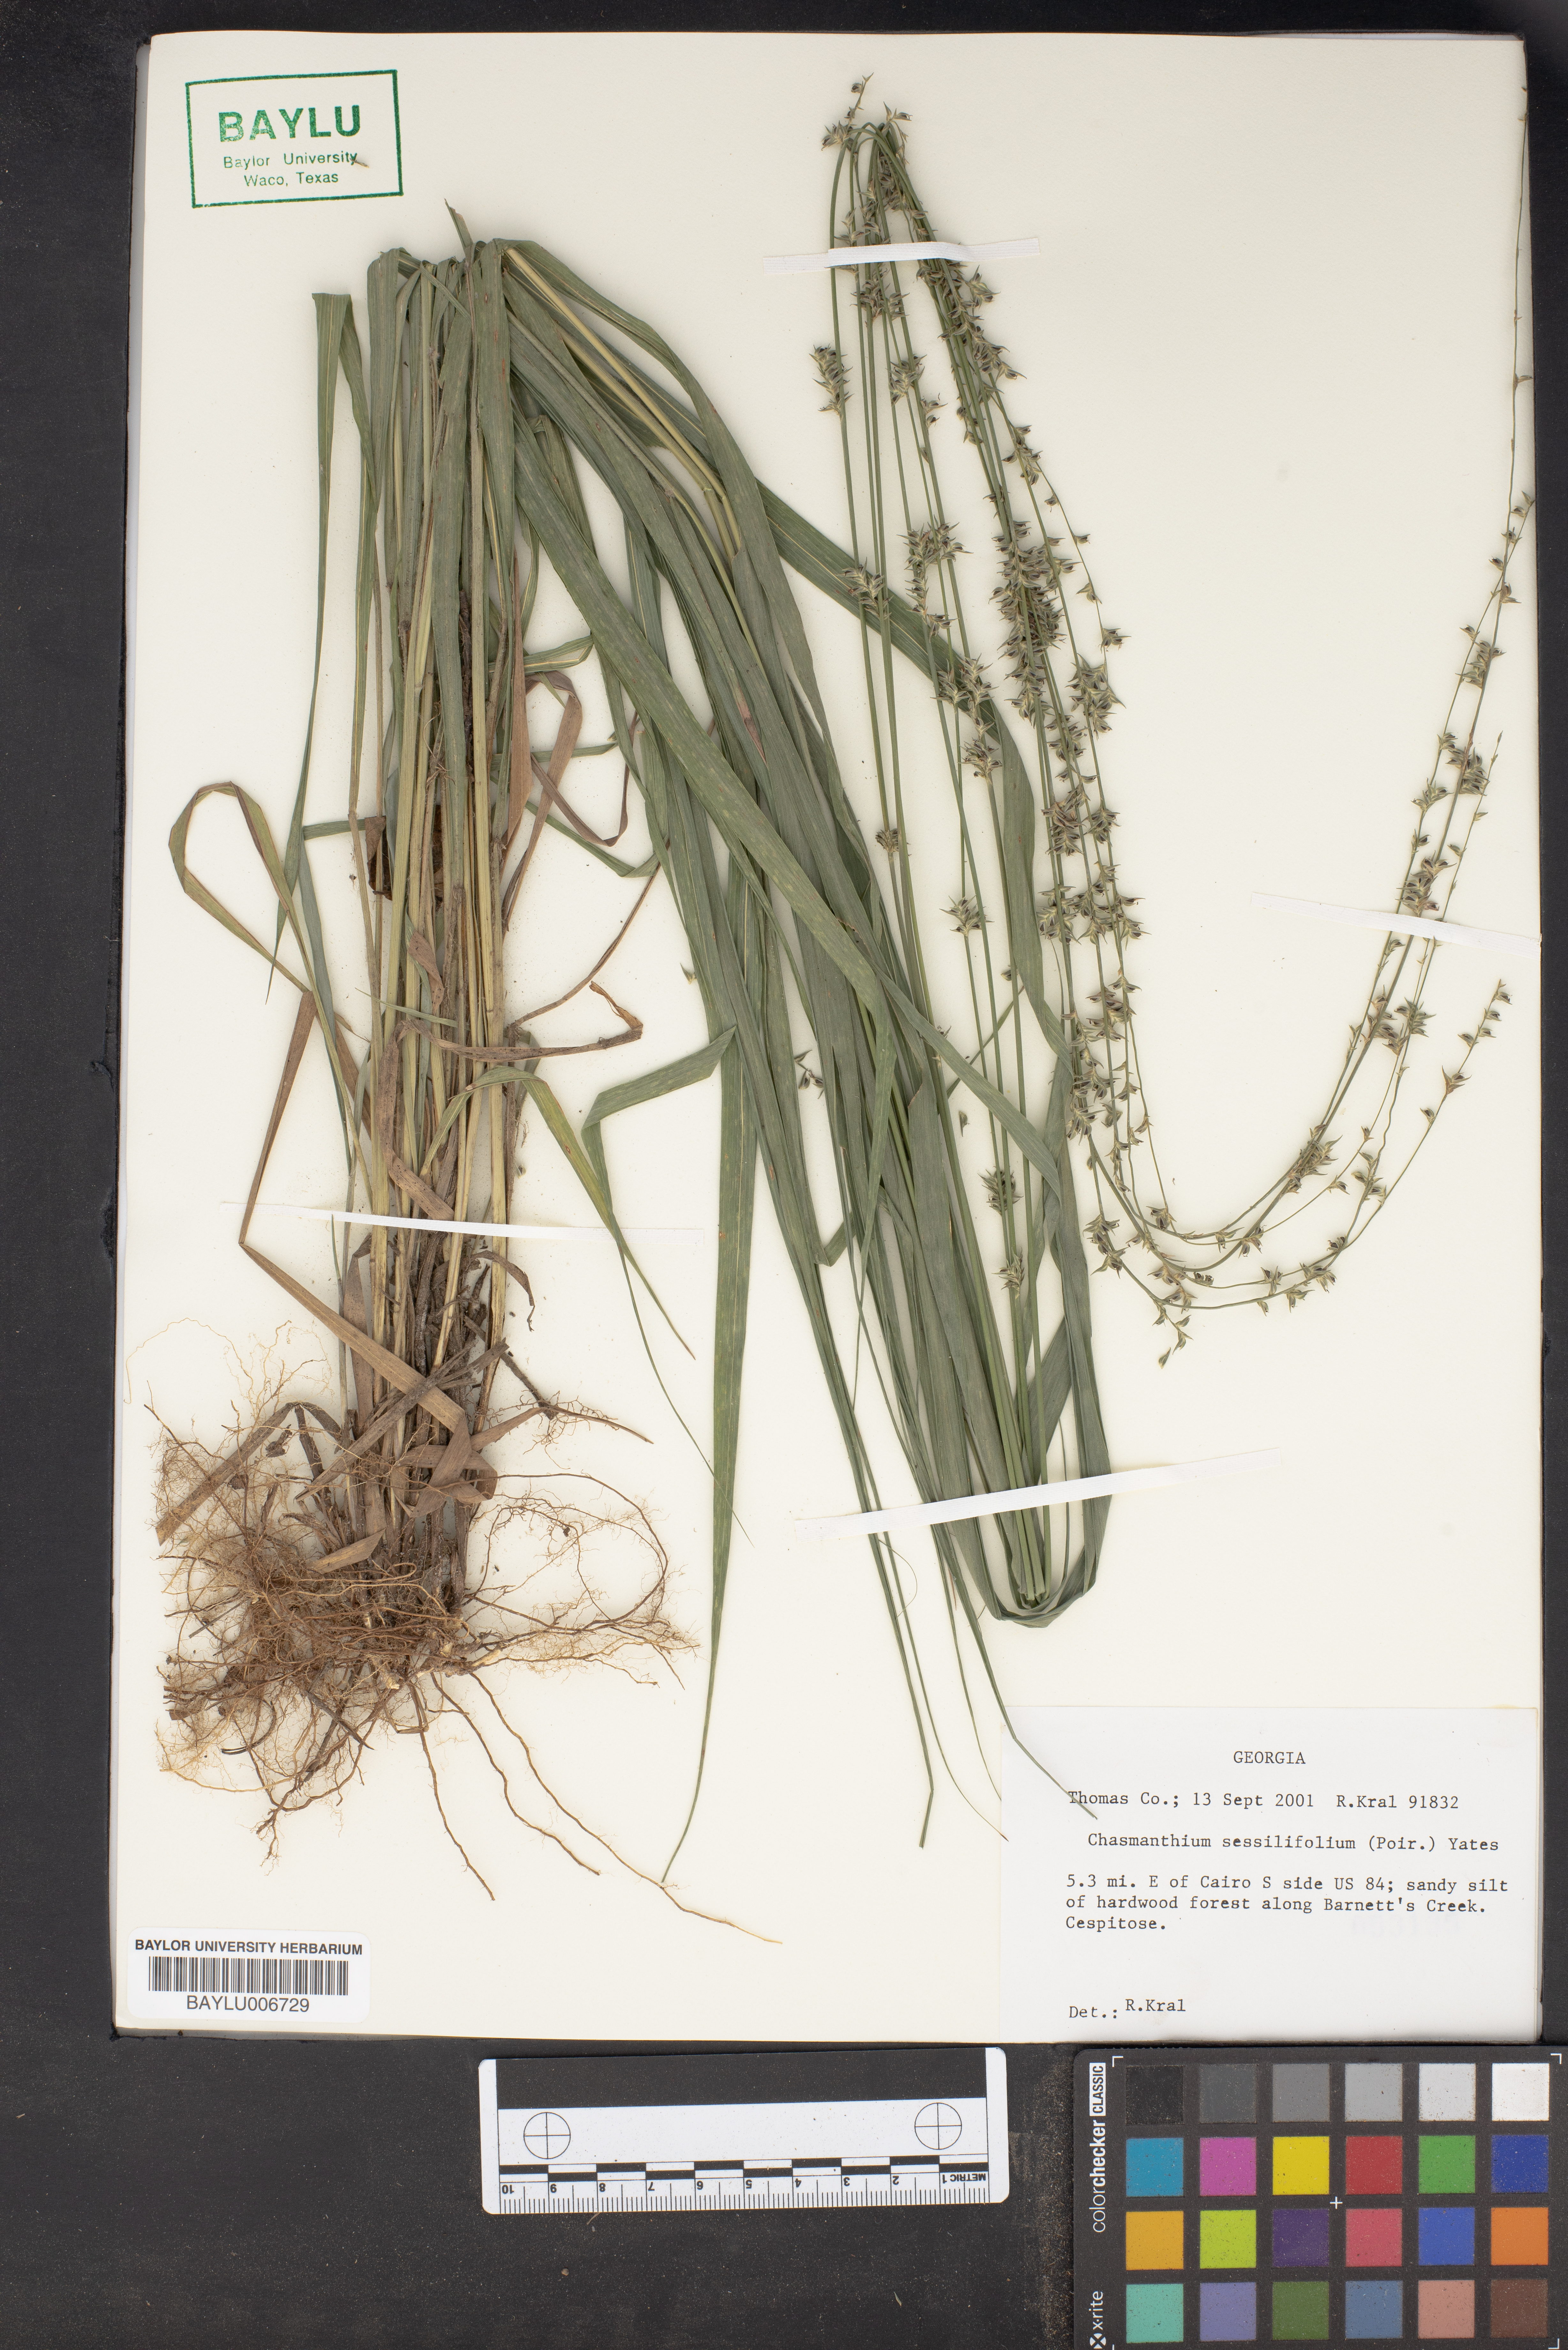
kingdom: Plantae
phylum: Tracheophyta
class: Liliopsida
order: Poales
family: Poaceae
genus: Chasmanthium
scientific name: Chasmanthium laxum
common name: Slender chasmanthium
